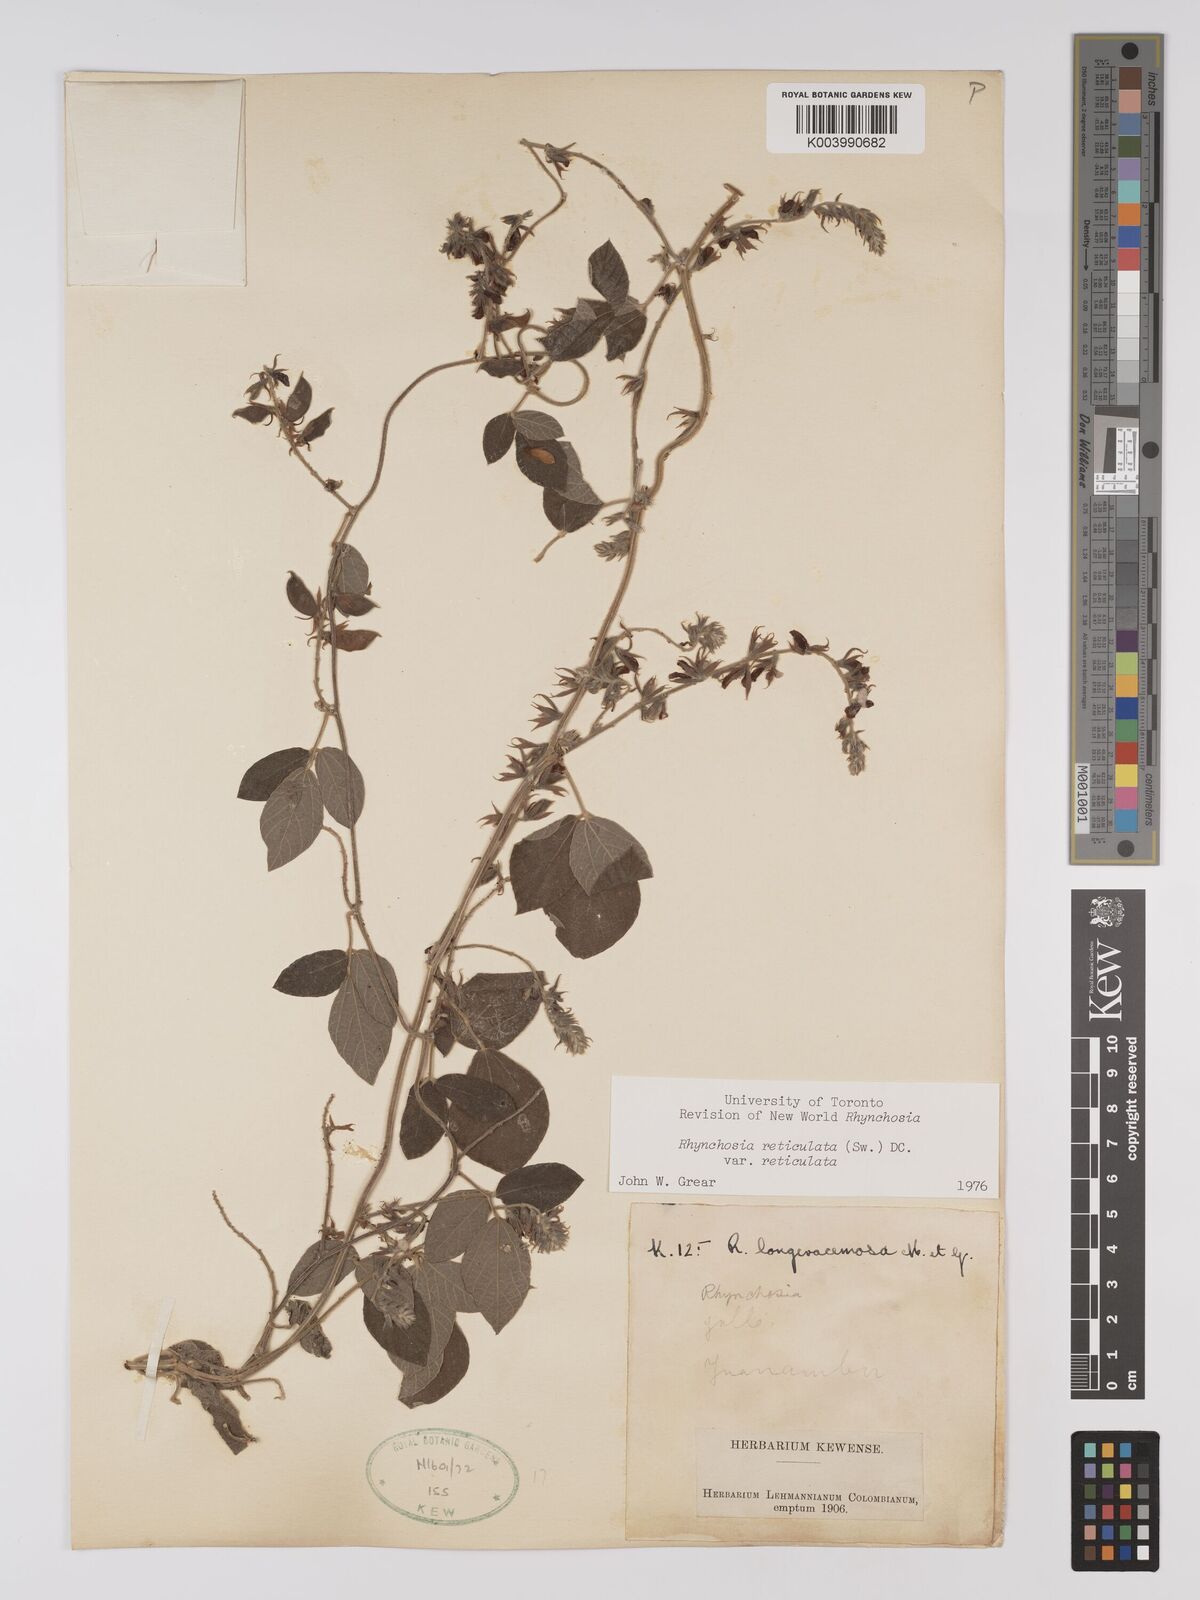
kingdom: Plantae
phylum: Tracheophyta
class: Magnoliopsida
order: Fabales
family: Fabaceae
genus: Rhynchosia
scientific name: Rhynchosia reticulata
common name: Pea withe
